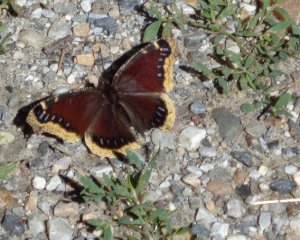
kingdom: Animalia
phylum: Arthropoda
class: Insecta
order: Lepidoptera
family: Nymphalidae
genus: Nymphalis
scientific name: Nymphalis antiopa
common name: Mourning Cloak
